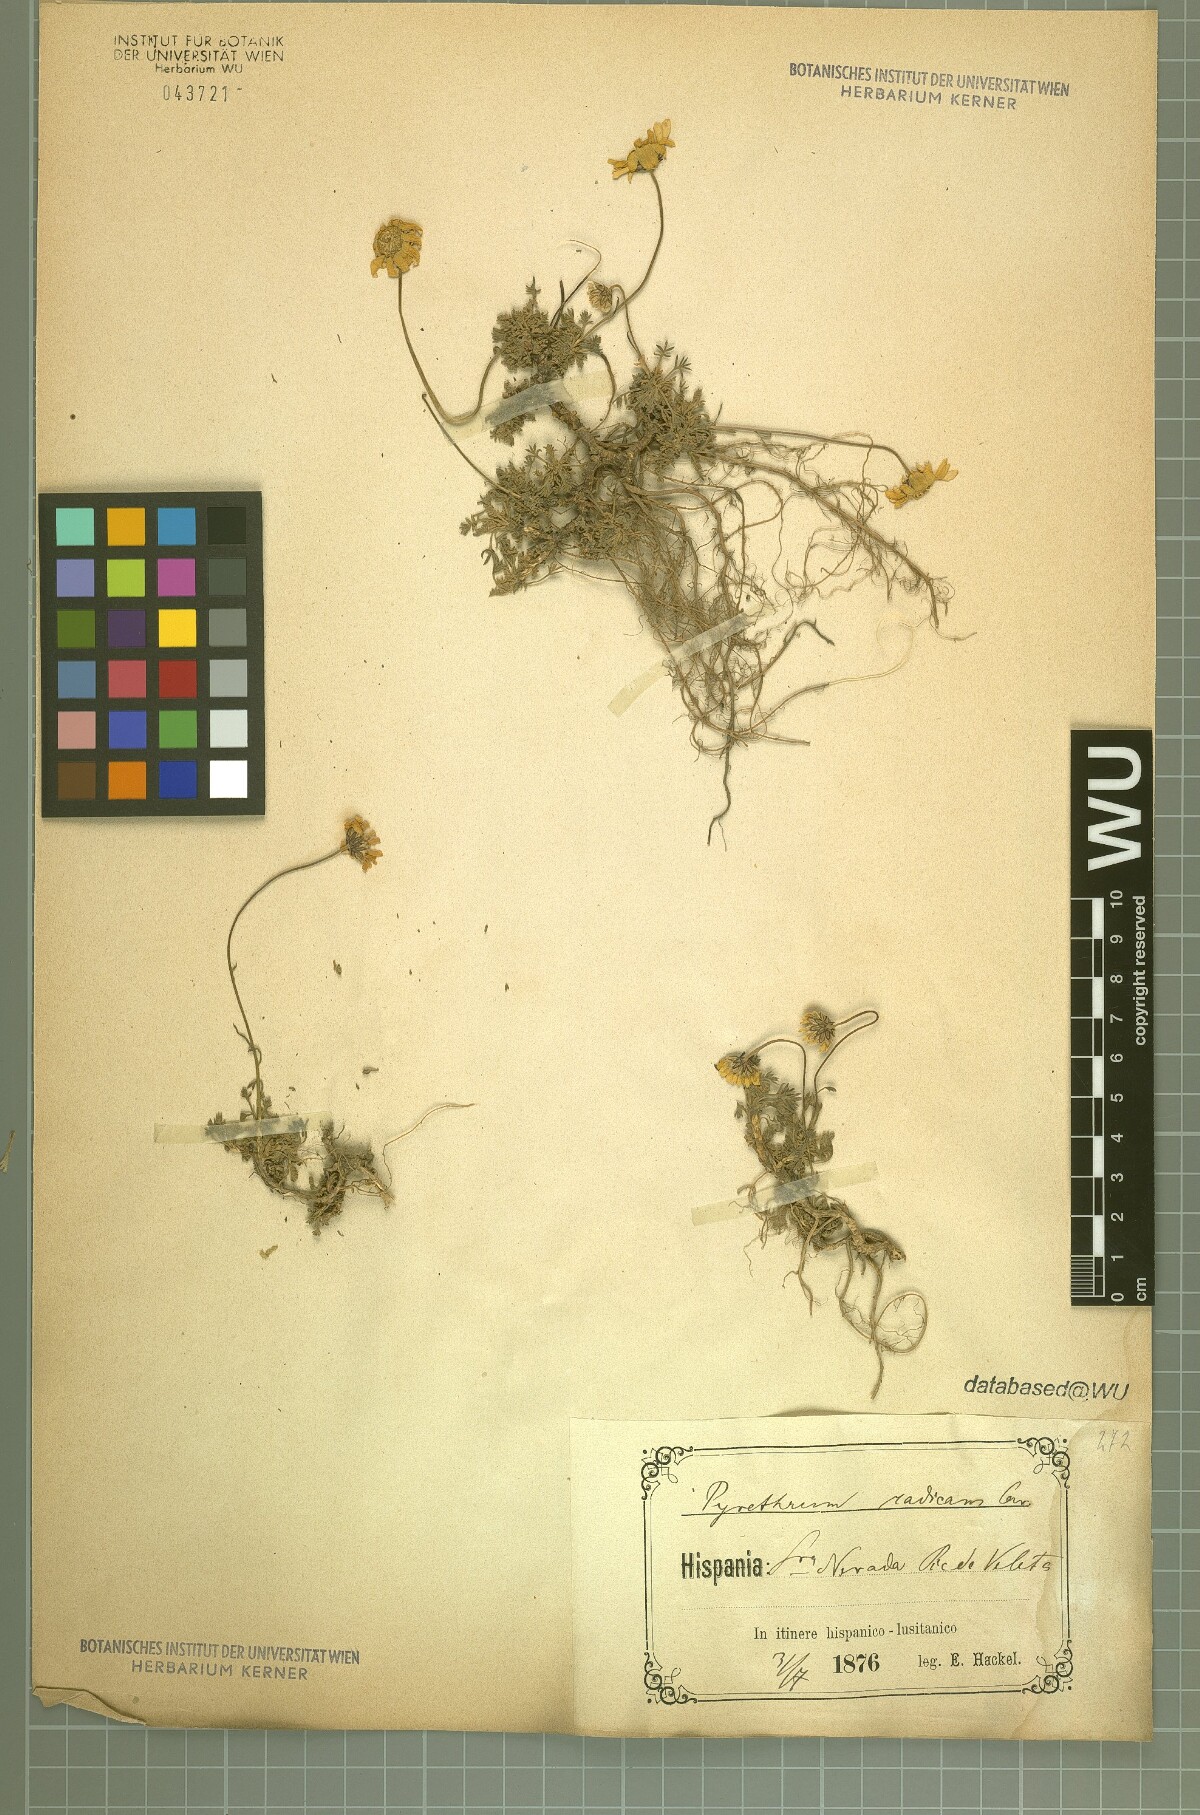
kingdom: Plantae
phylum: Tracheophyta
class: Magnoliopsida
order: Asterales
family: Asteraceae
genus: Leucanthemopsis
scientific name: Leucanthemopsis pectinata
